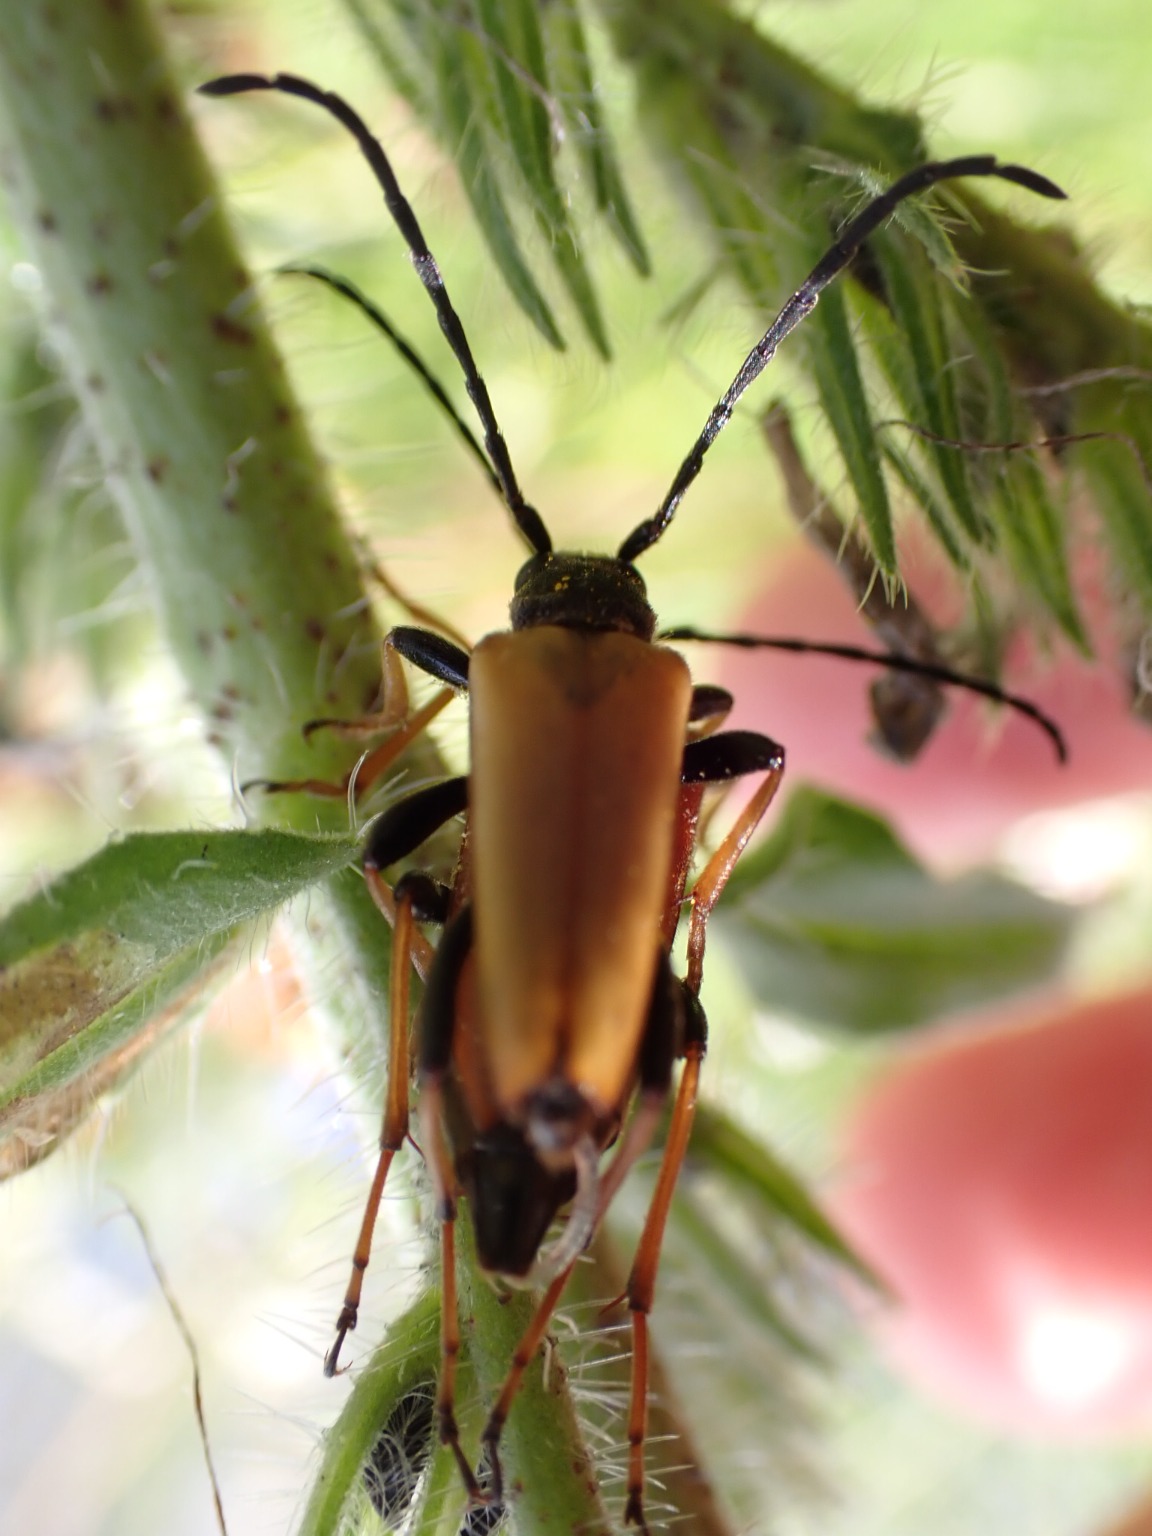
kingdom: Animalia
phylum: Arthropoda
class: Insecta
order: Coleoptera
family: Cerambycidae
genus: Stictoleptura
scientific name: Stictoleptura rubra
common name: Rød blomsterbuk
